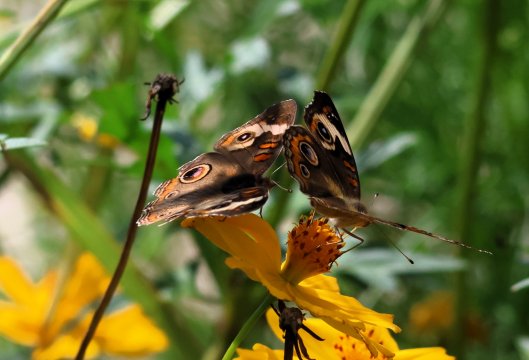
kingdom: Animalia
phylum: Arthropoda
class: Insecta
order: Lepidoptera
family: Nymphalidae
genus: Junonia
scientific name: Junonia coenia
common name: Common Buckeye
